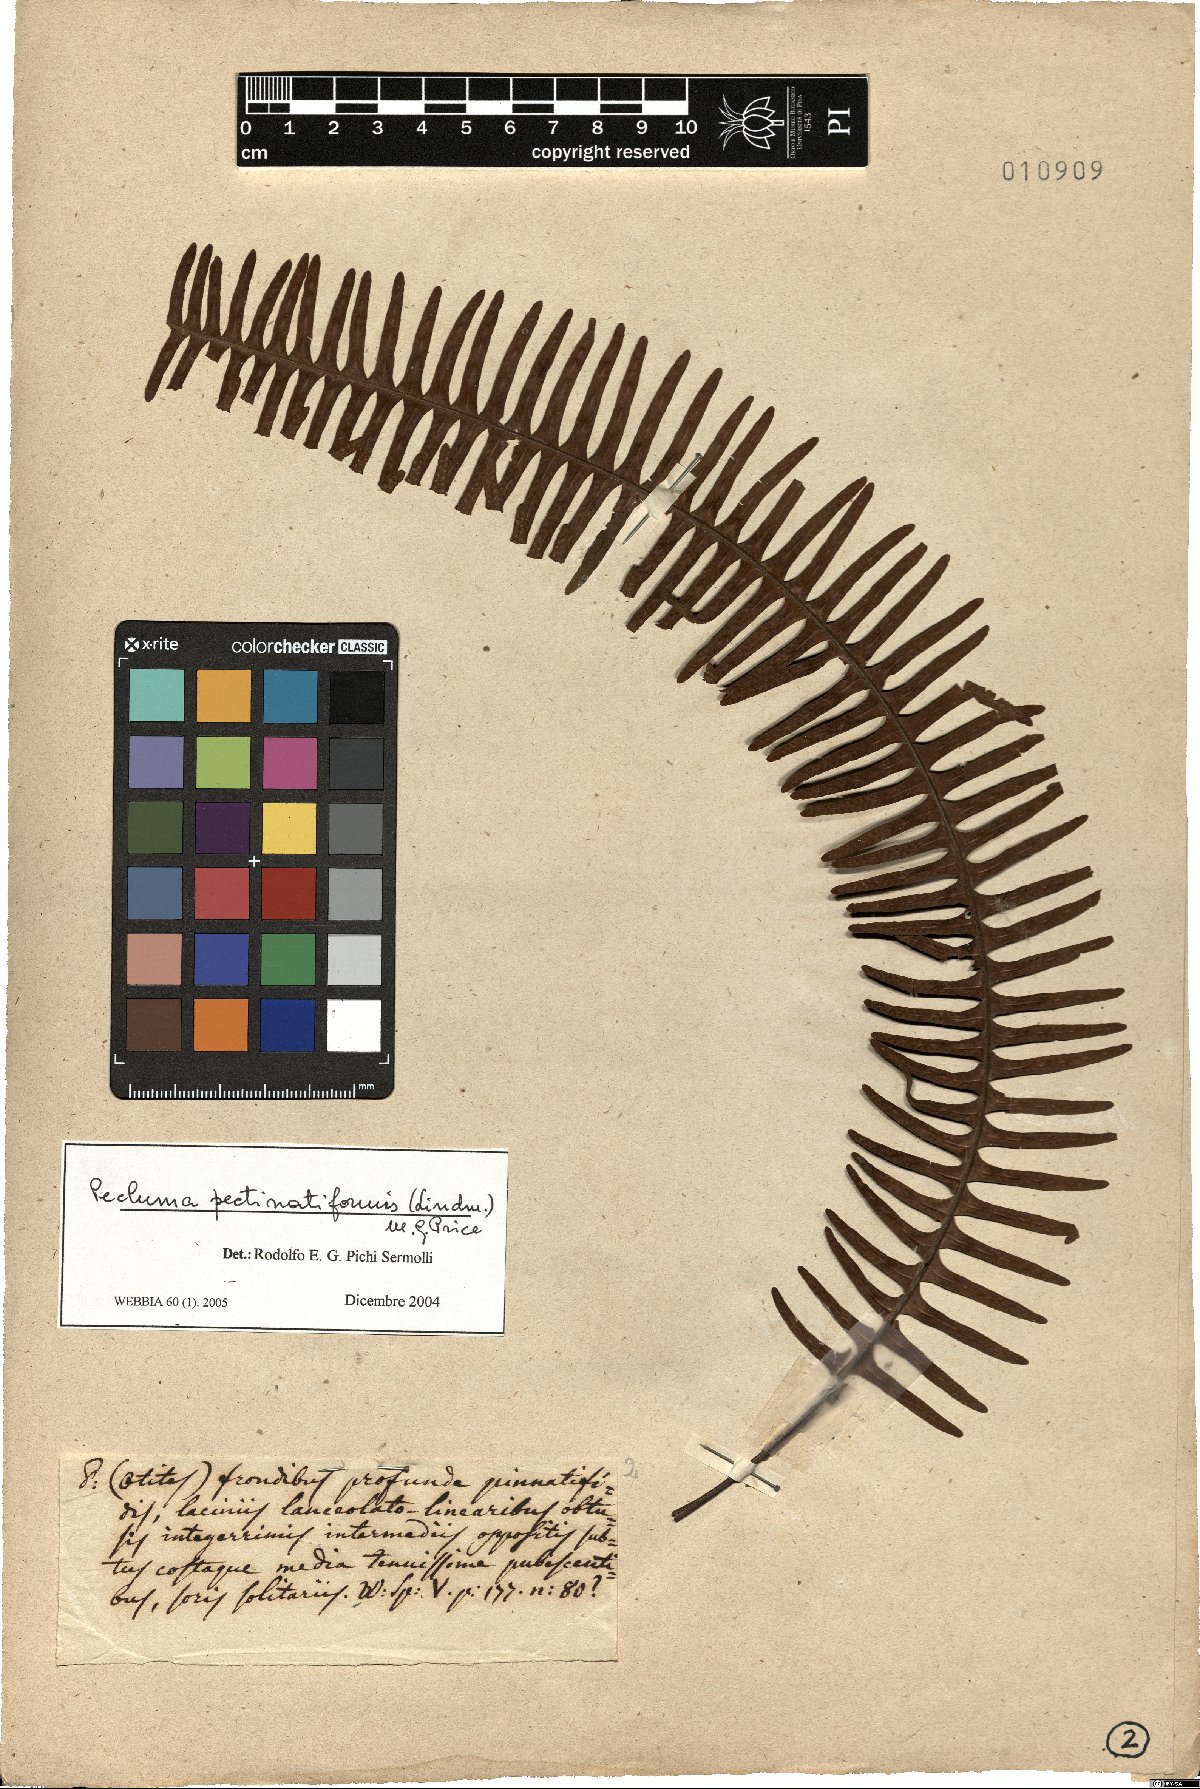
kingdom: Plantae
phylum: Tracheophyta
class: Polypodiopsida
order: Polypodiales
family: Polypodiaceae
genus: Pecluma
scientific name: Pecluma pectinatiformis
